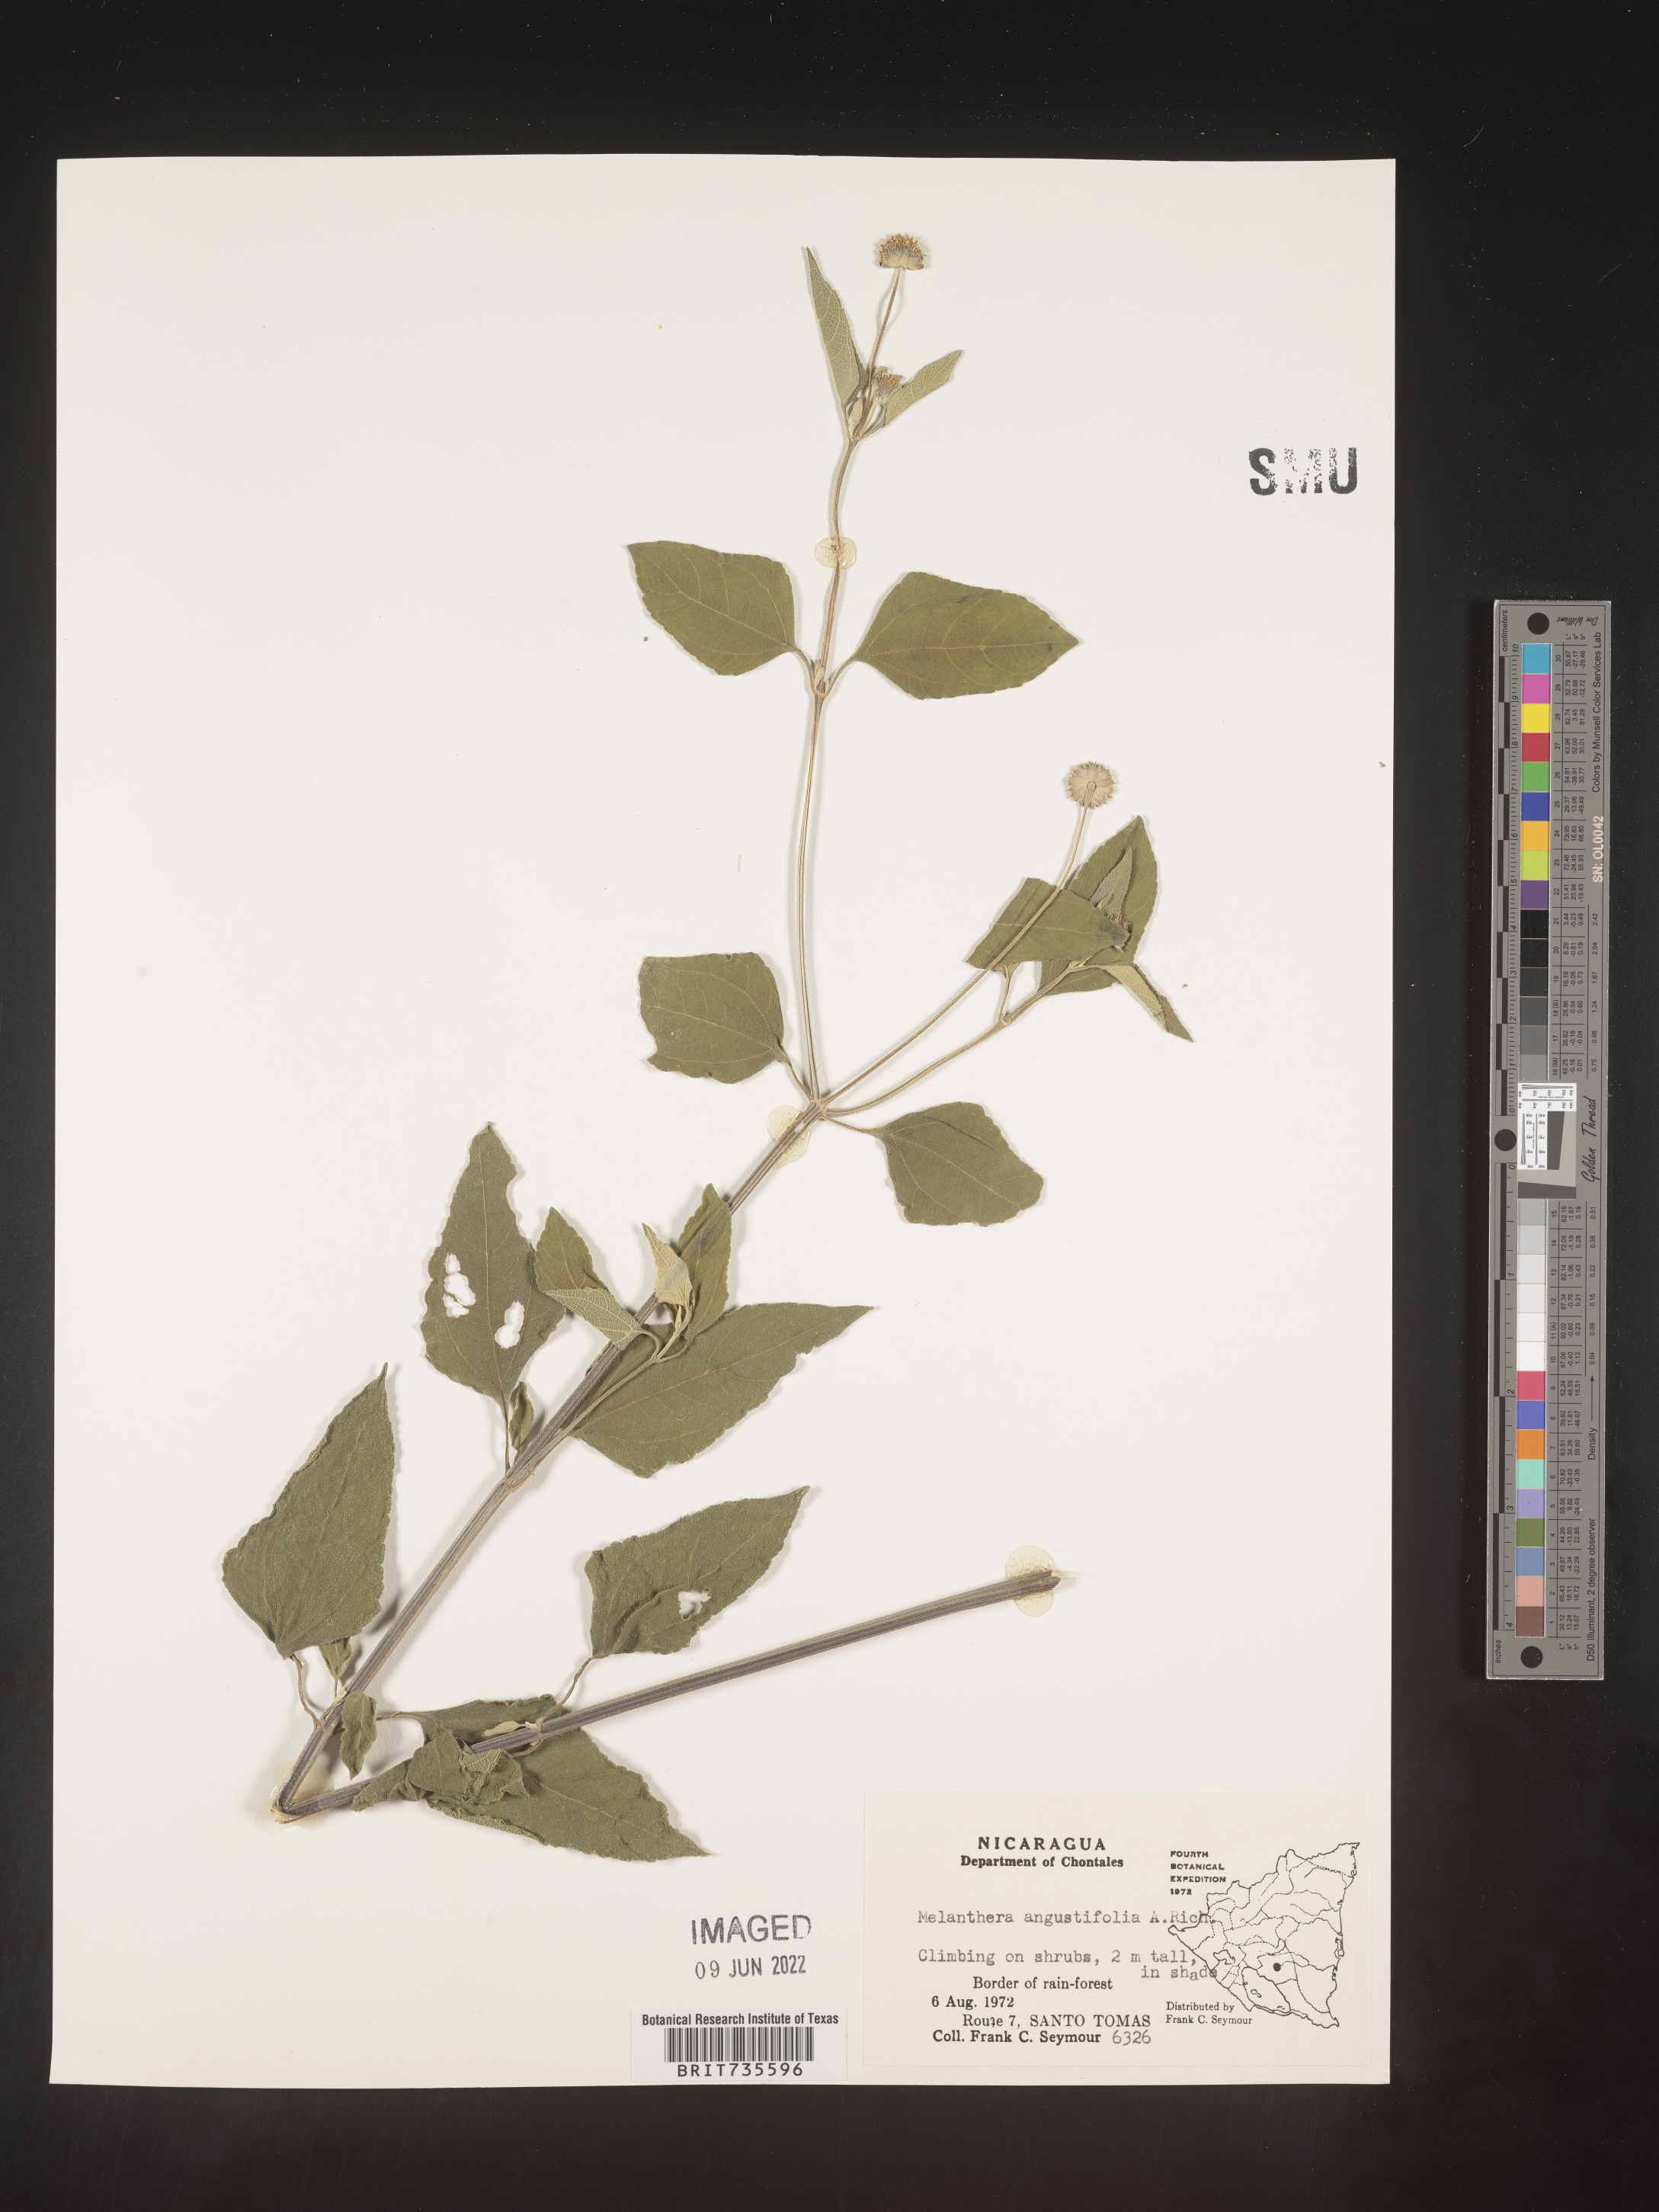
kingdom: Plantae
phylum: Tracheophyta
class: Magnoliopsida
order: Asterales
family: Asteraceae
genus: Melanthera
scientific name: Melanthera
